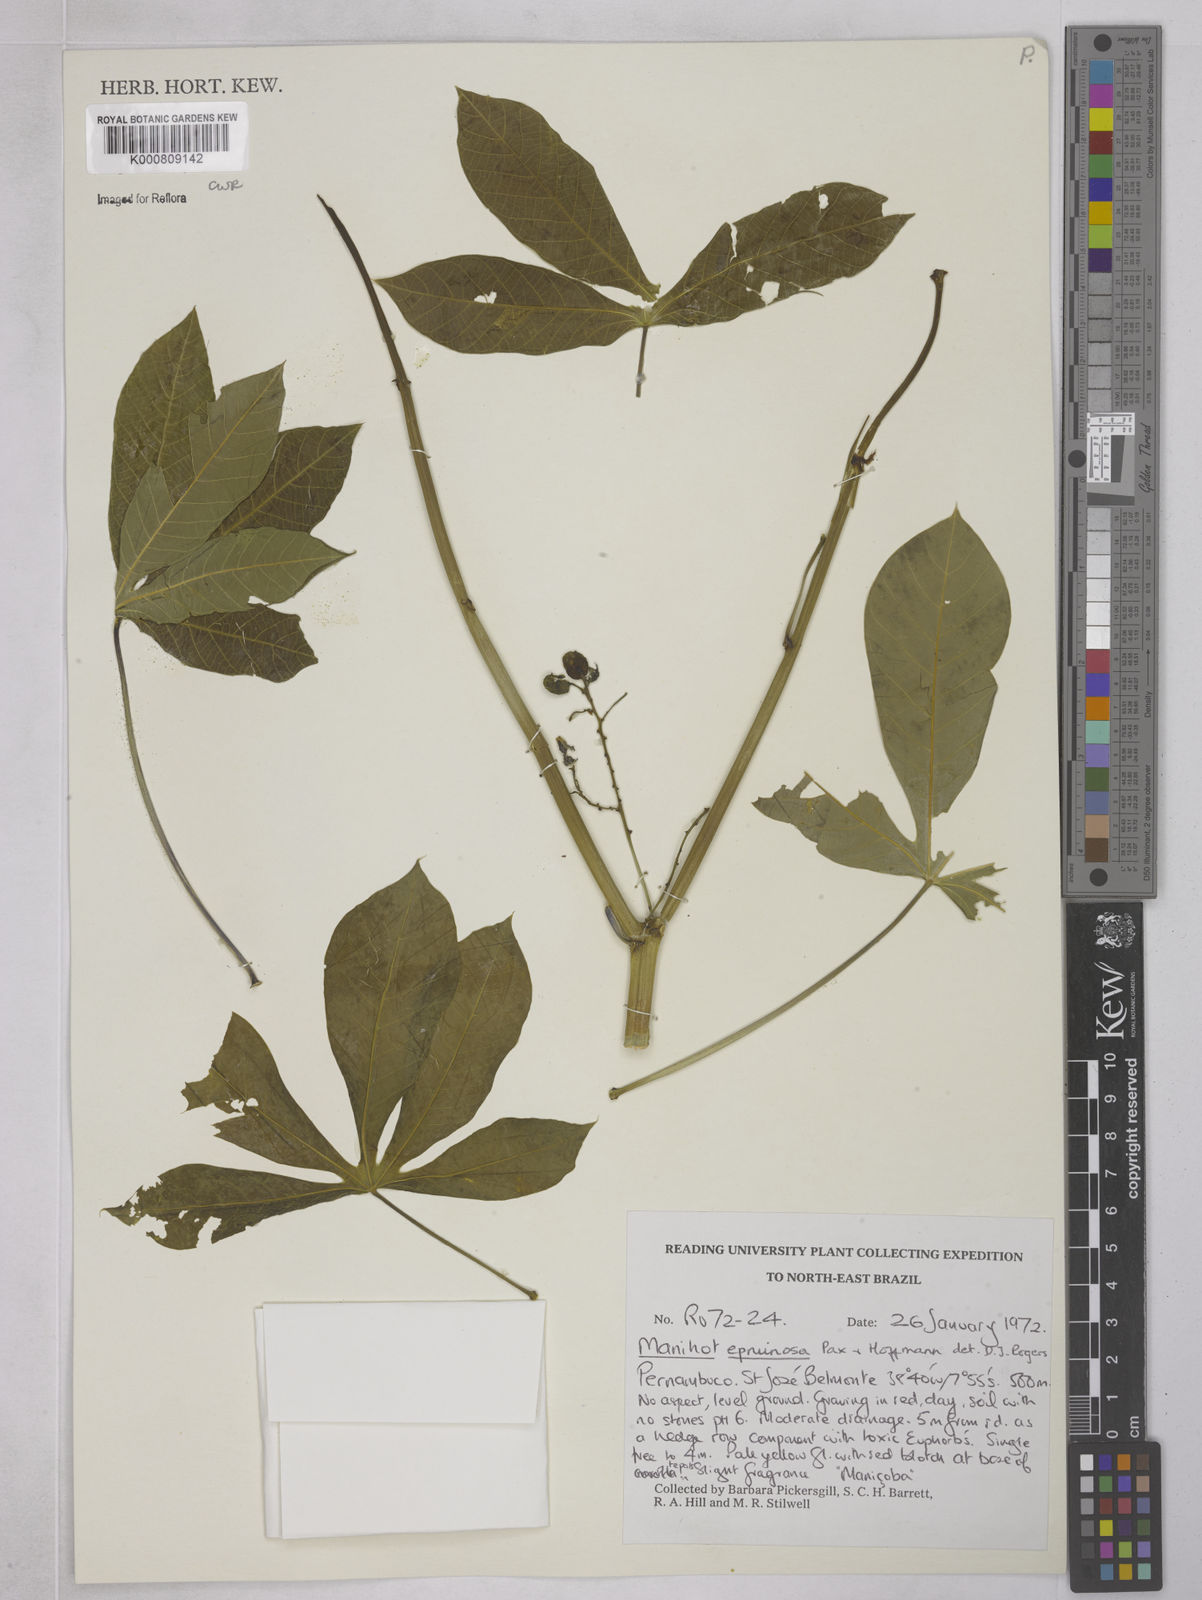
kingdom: Plantae
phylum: Tracheophyta
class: Magnoliopsida
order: Malpighiales
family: Euphorbiaceae
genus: Manihot
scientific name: Manihot epruinosa
